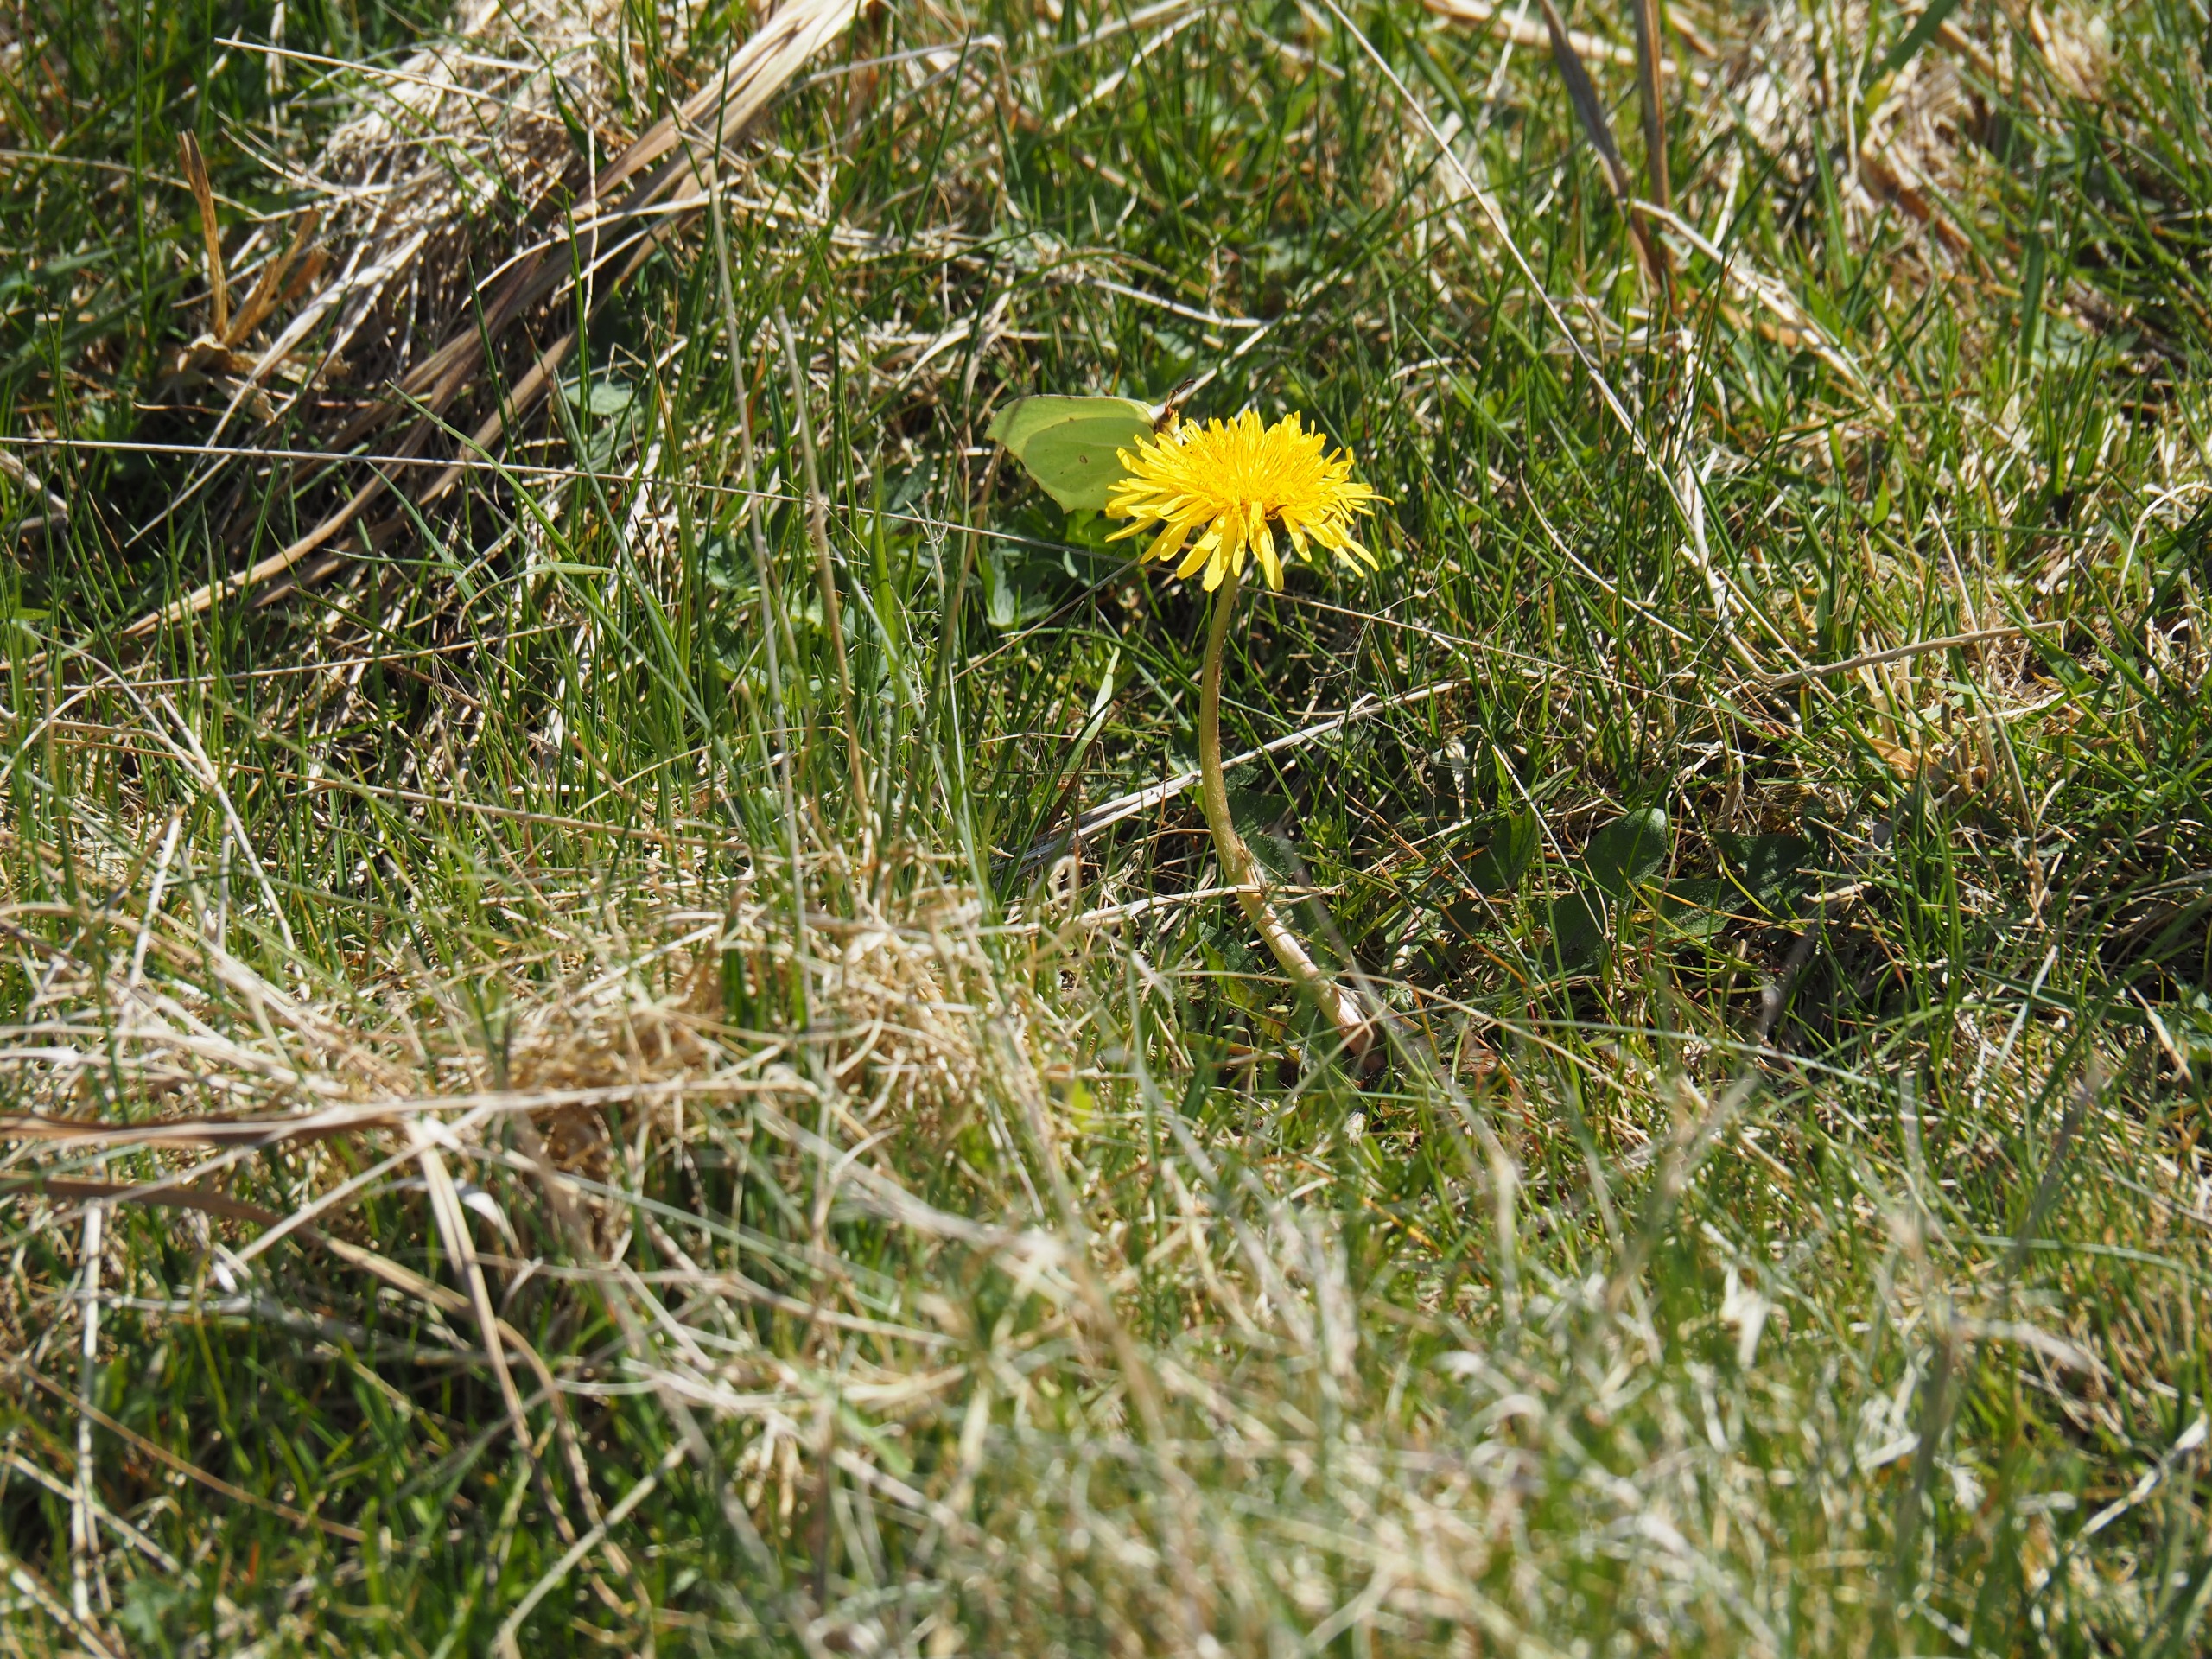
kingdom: Animalia
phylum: Arthropoda
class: Insecta
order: Lepidoptera
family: Pieridae
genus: Gonepteryx
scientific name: Gonepteryx rhamni
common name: Citronsommerfugl
